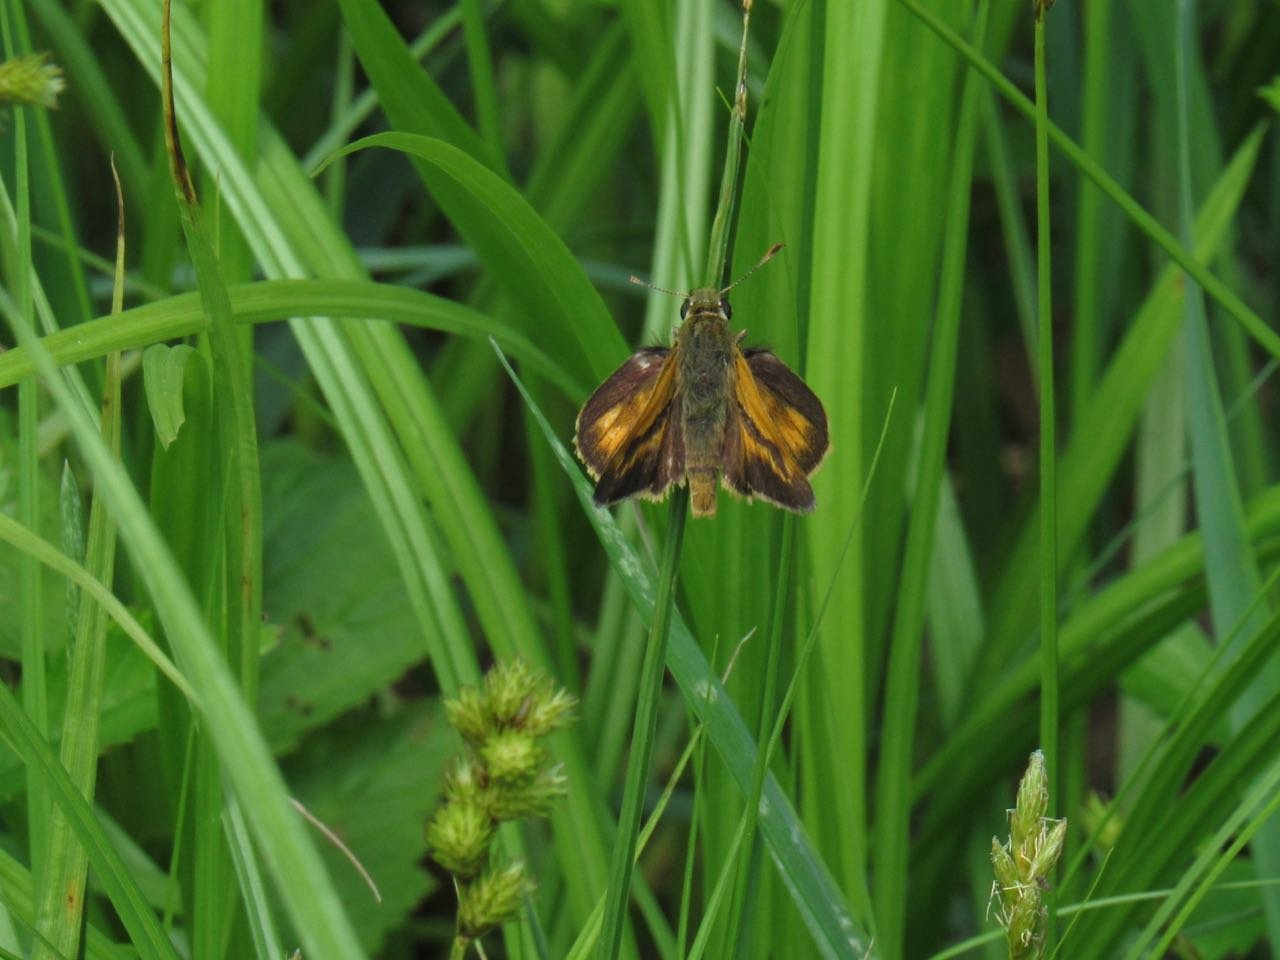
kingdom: Animalia
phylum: Arthropoda
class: Insecta
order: Lepidoptera
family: Hesperiidae
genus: Polites
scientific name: Polites
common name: Long Dash Skipper
